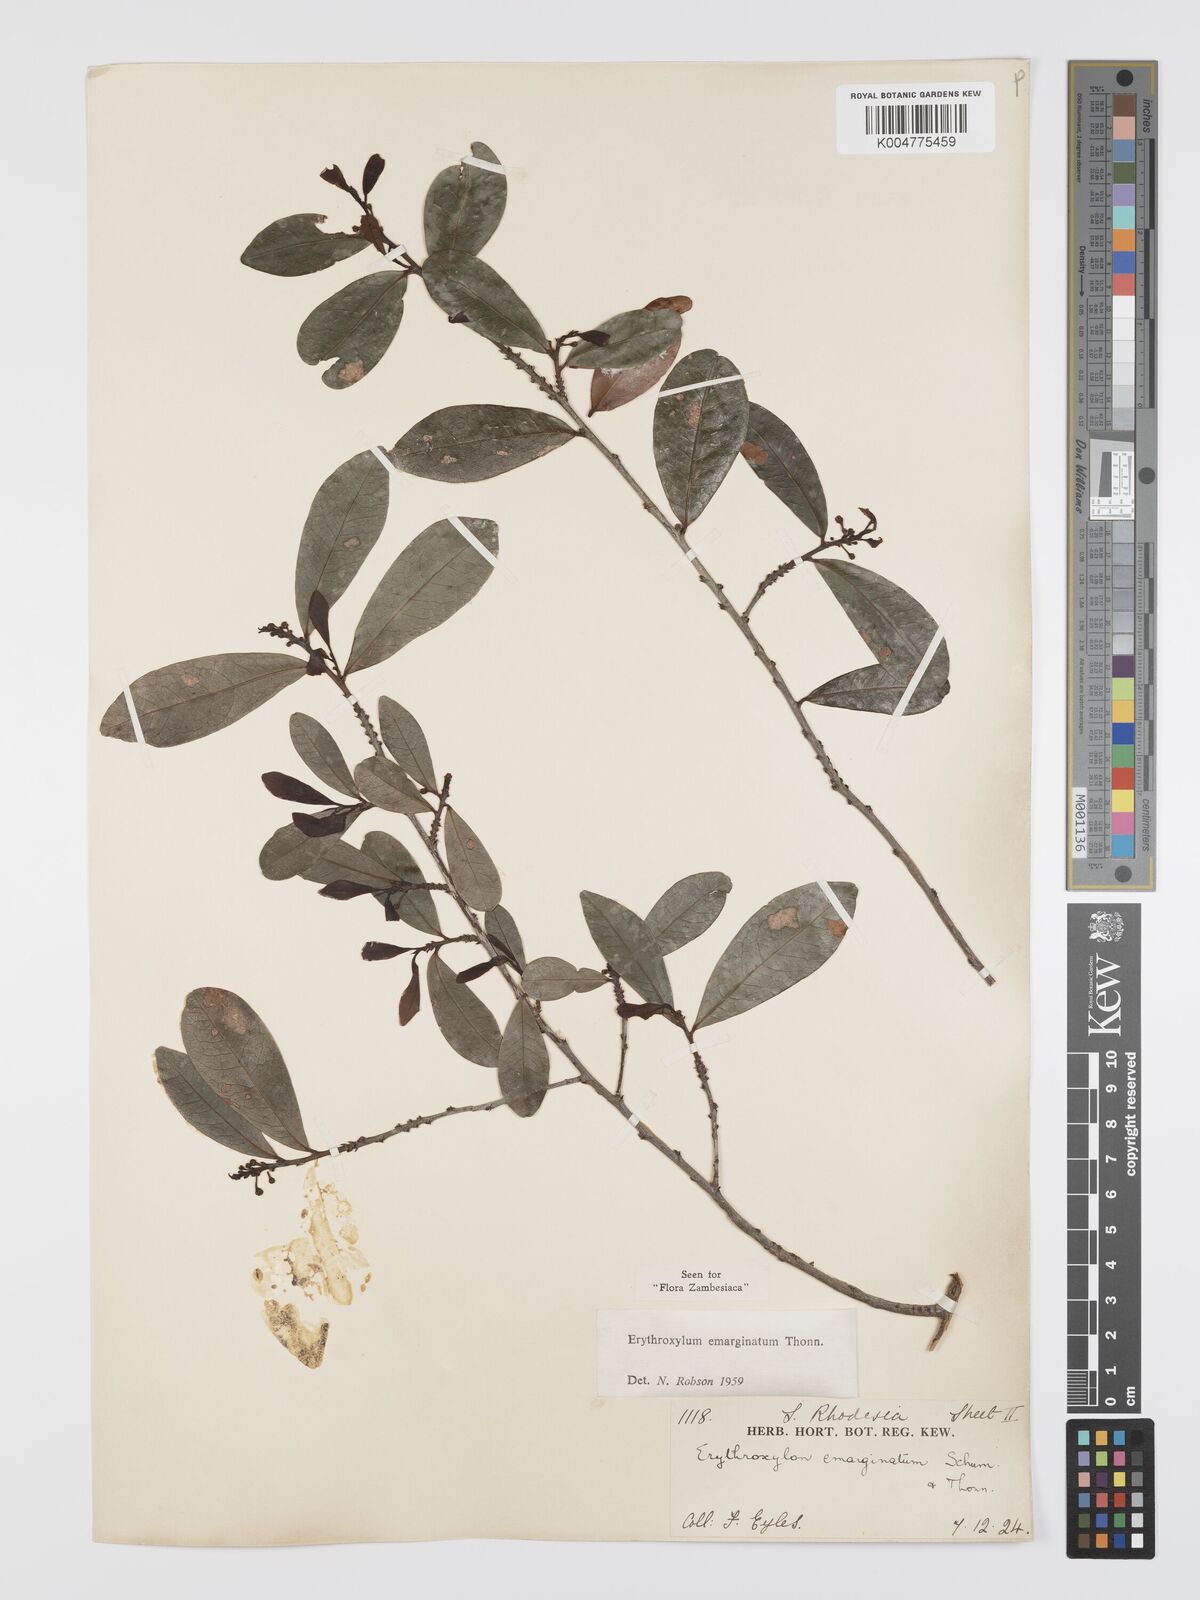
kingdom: Plantae
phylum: Tracheophyta
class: Magnoliopsida
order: Malpighiales
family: Erythroxylaceae
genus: Erythroxylum
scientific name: Erythroxylum emarginatum
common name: African coca-tree
